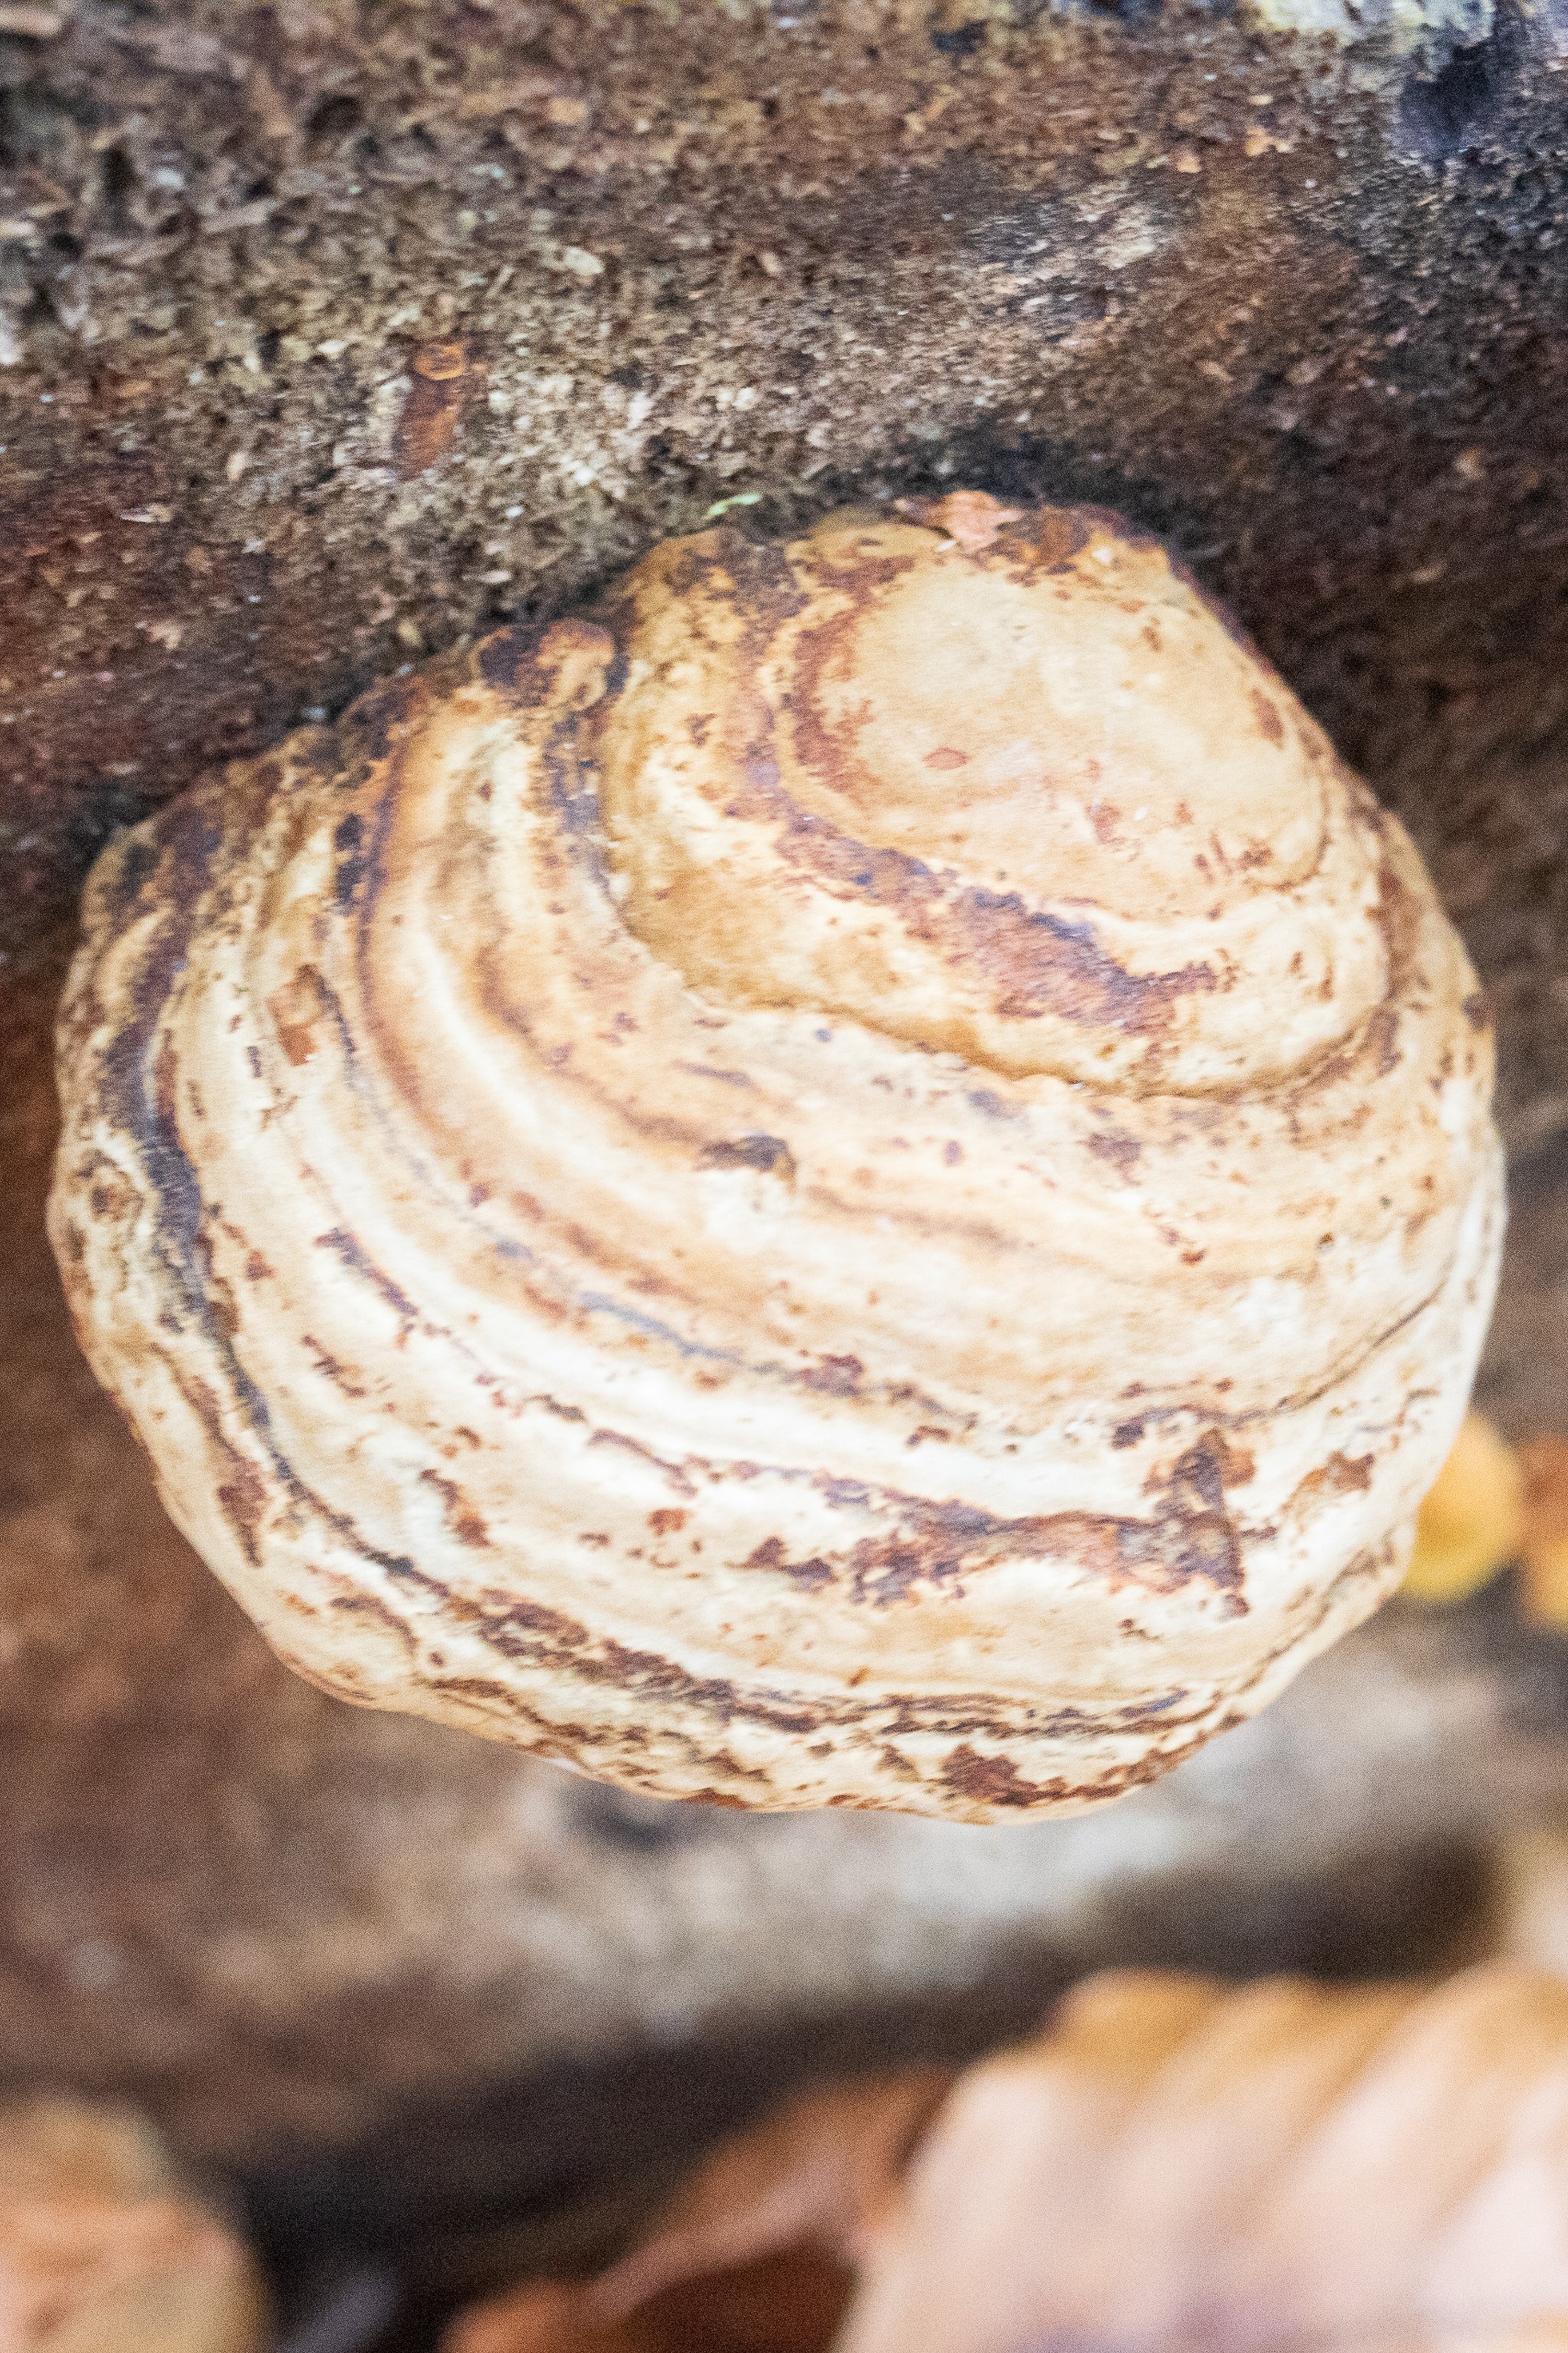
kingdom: Fungi
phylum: Basidiomycota
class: Agaricomycetes
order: Polyporales
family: Polyporaceae
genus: Fomes
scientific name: Fomes fomentarius
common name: Tøndersvamp
